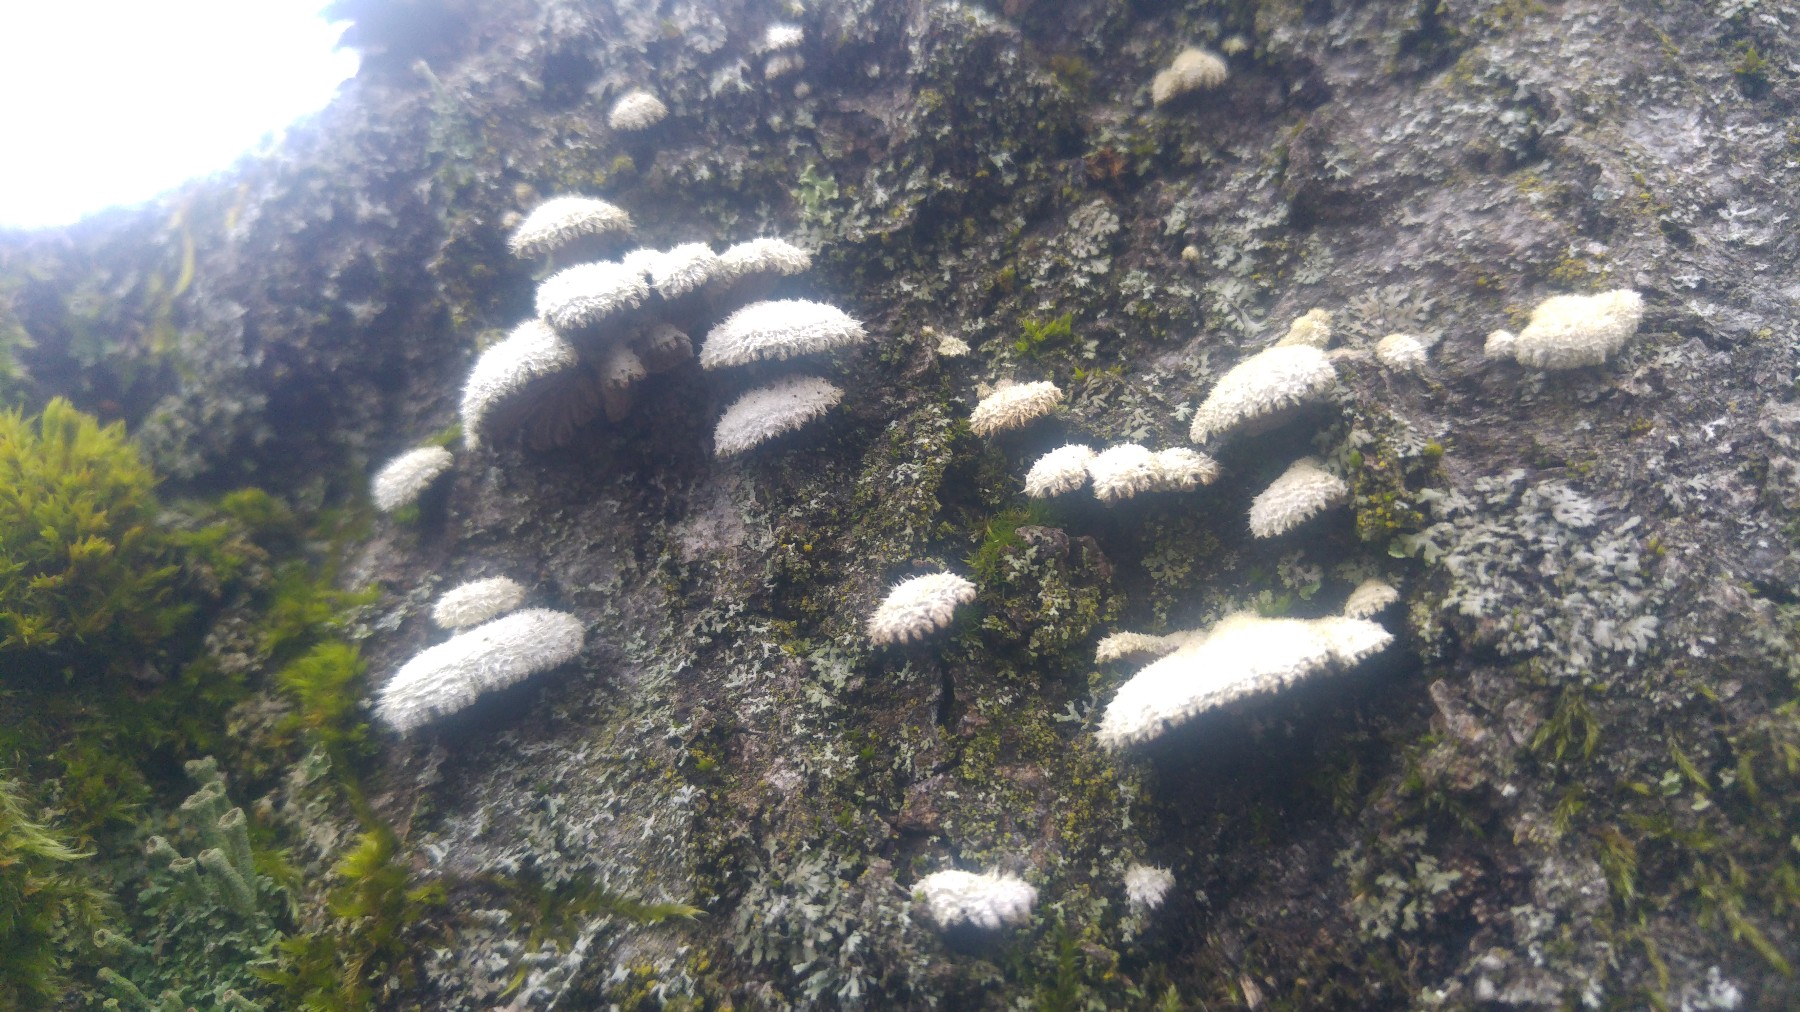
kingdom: Fungi
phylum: Basidiomycota
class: Agaricomycetes
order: Agaricales
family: Schizophyllaceae
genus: Schizophyllum
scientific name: Schizophyllum commune
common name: kløvblad
